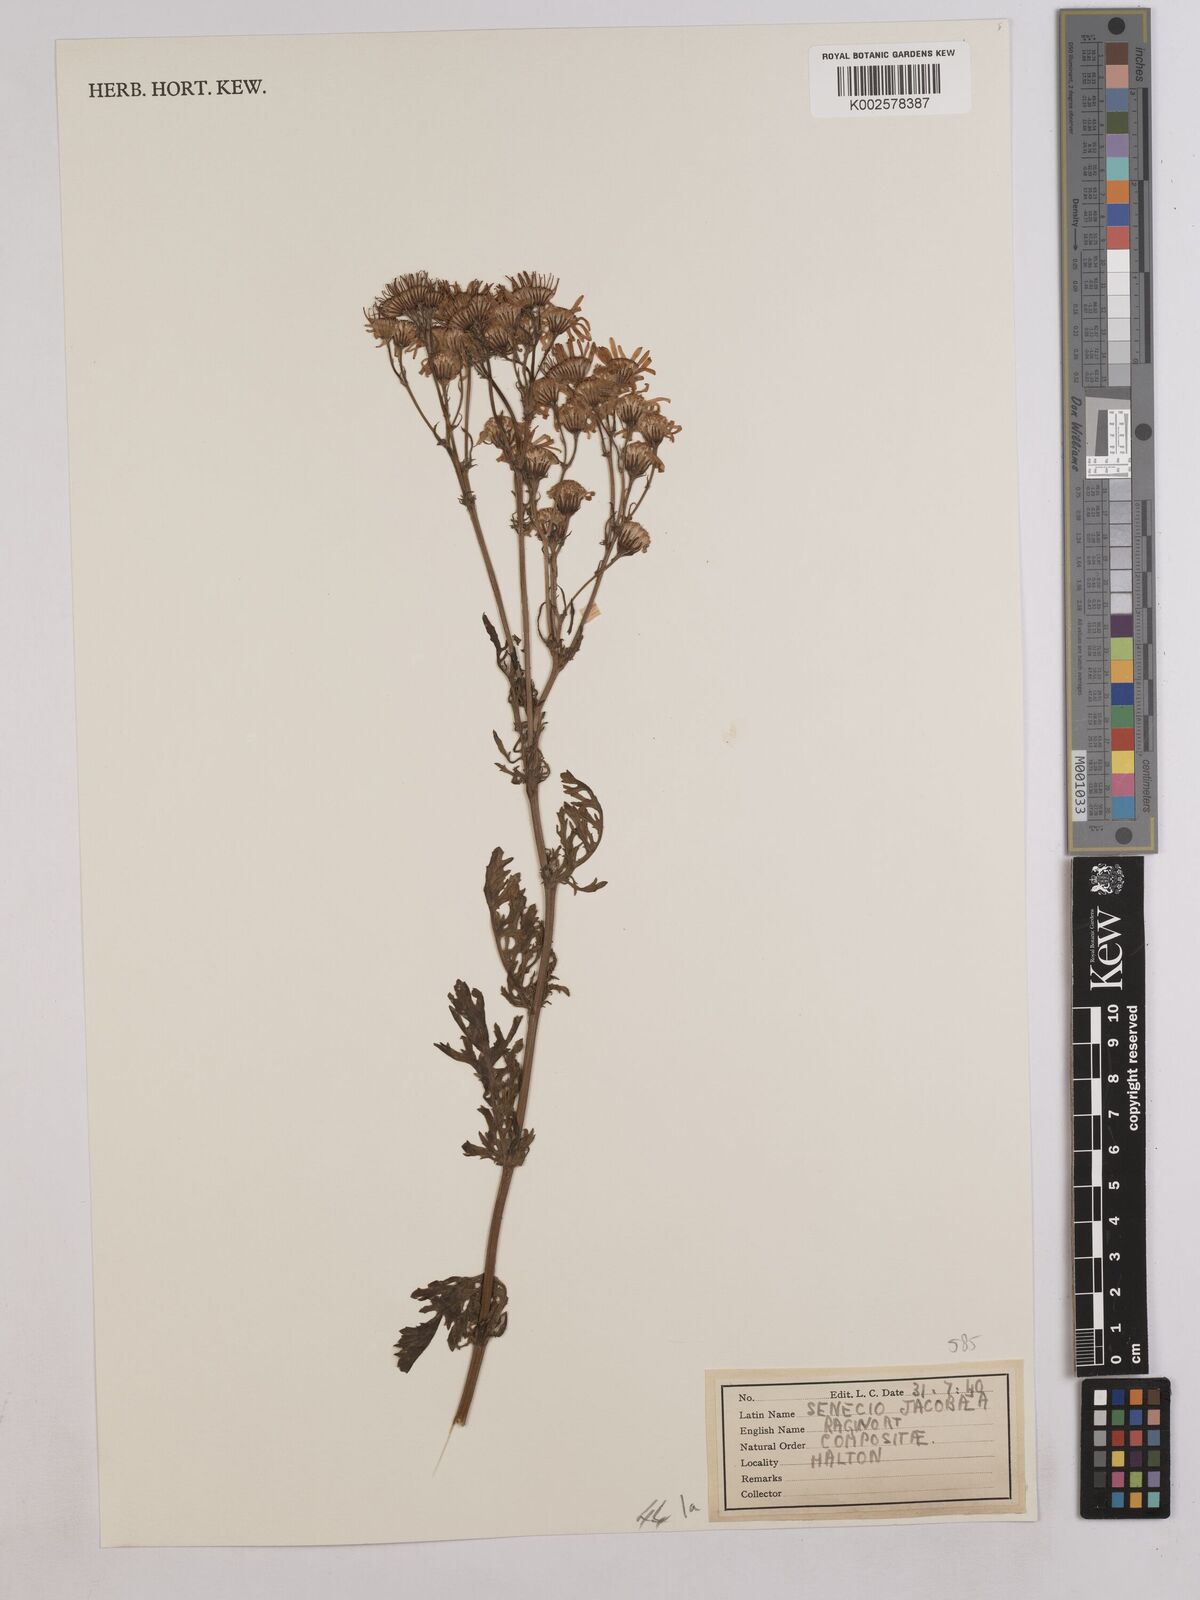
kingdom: Plantae
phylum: Tracheophyta
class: Magnoliopsida
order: Asterales
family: Asteraceae
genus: Jacobaea
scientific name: Jacobaea vulgaris
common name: Stinking willie
